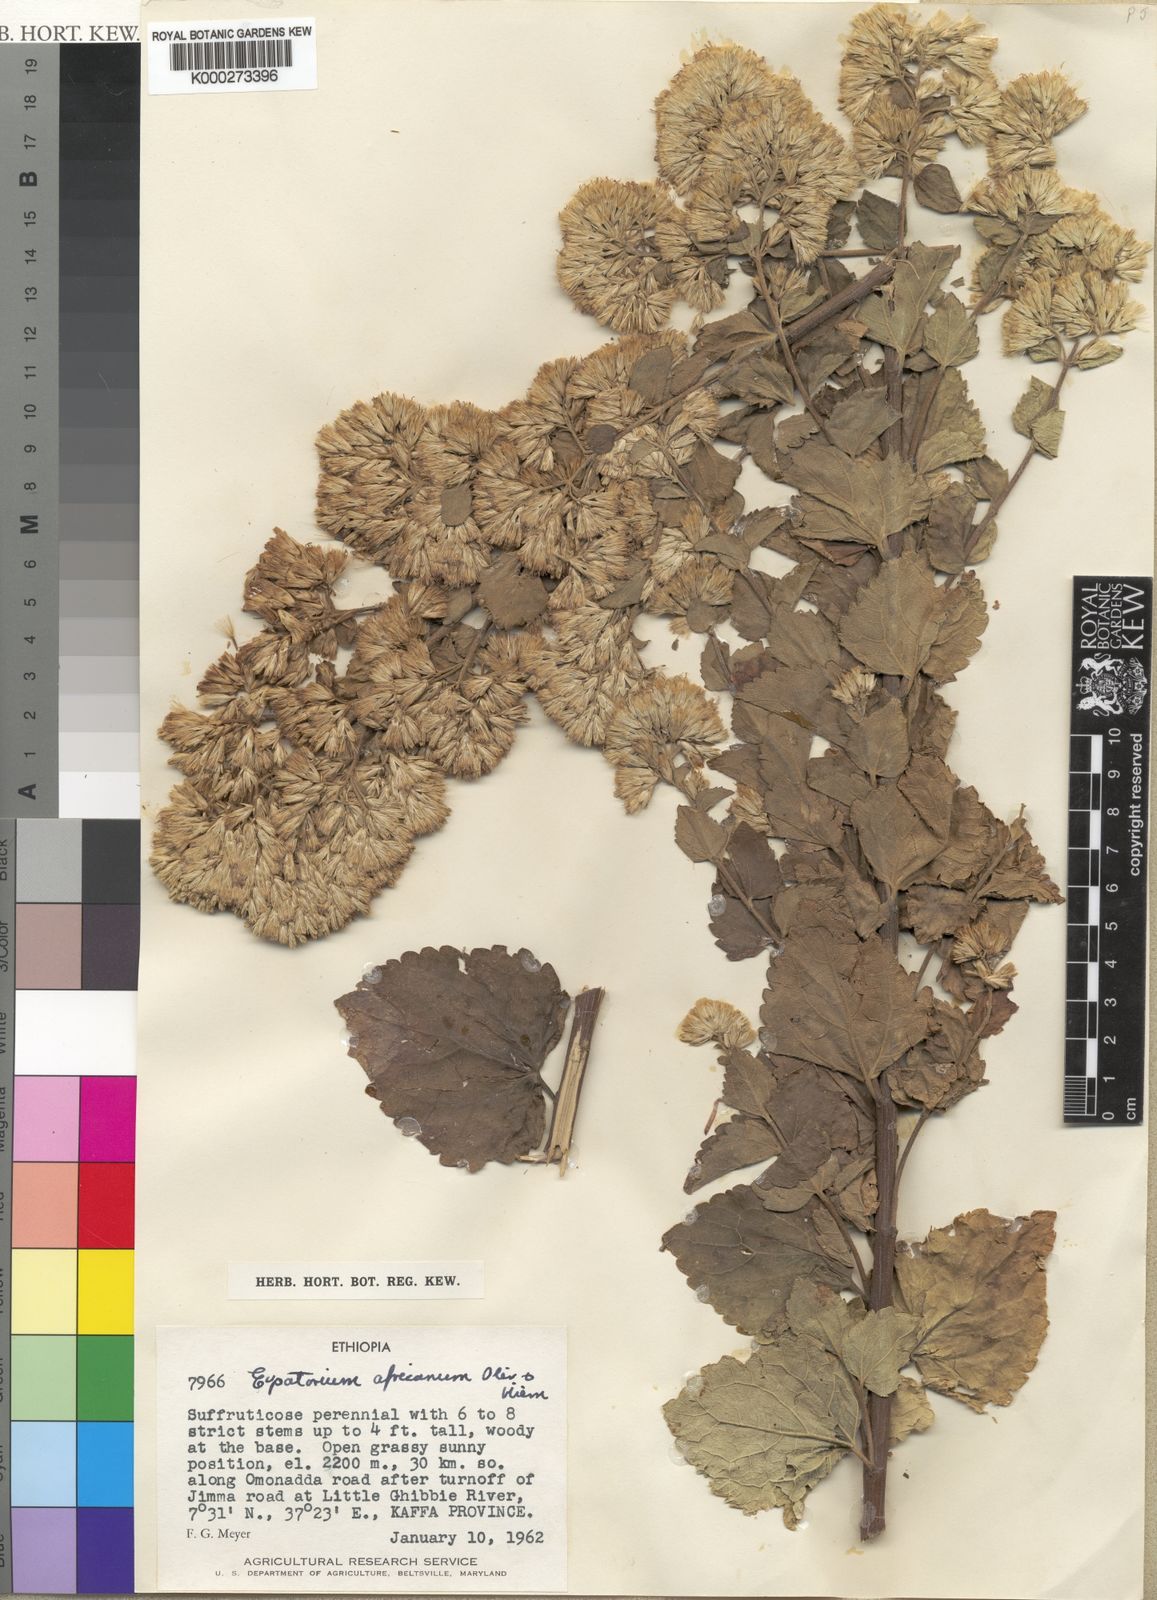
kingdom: Plantae
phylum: Tracheophyta
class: Magnoliopsida
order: Asterales
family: Asteraceae
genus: Stomatanthes
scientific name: Stomatanthes meyeri
